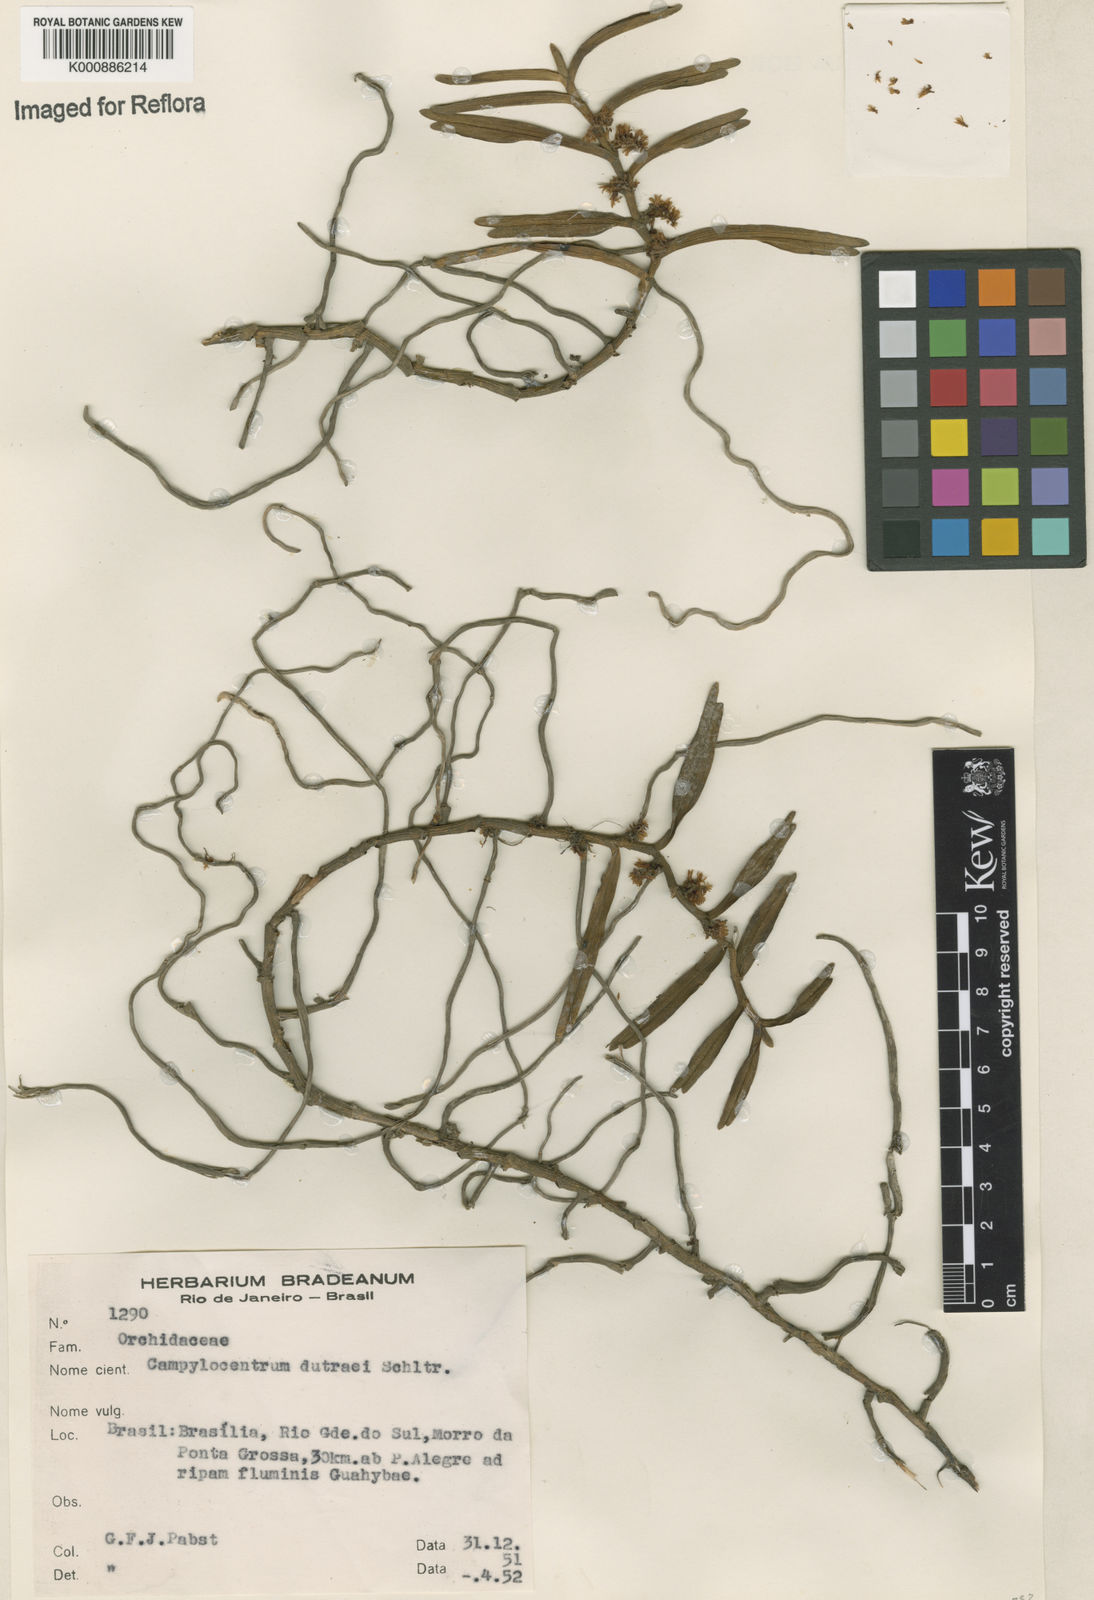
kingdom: Plantae
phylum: Tracheophyta
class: Liliopsida
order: Asparagales
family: Orchidaceae
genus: Campylocentrum
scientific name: Campylocentrum
